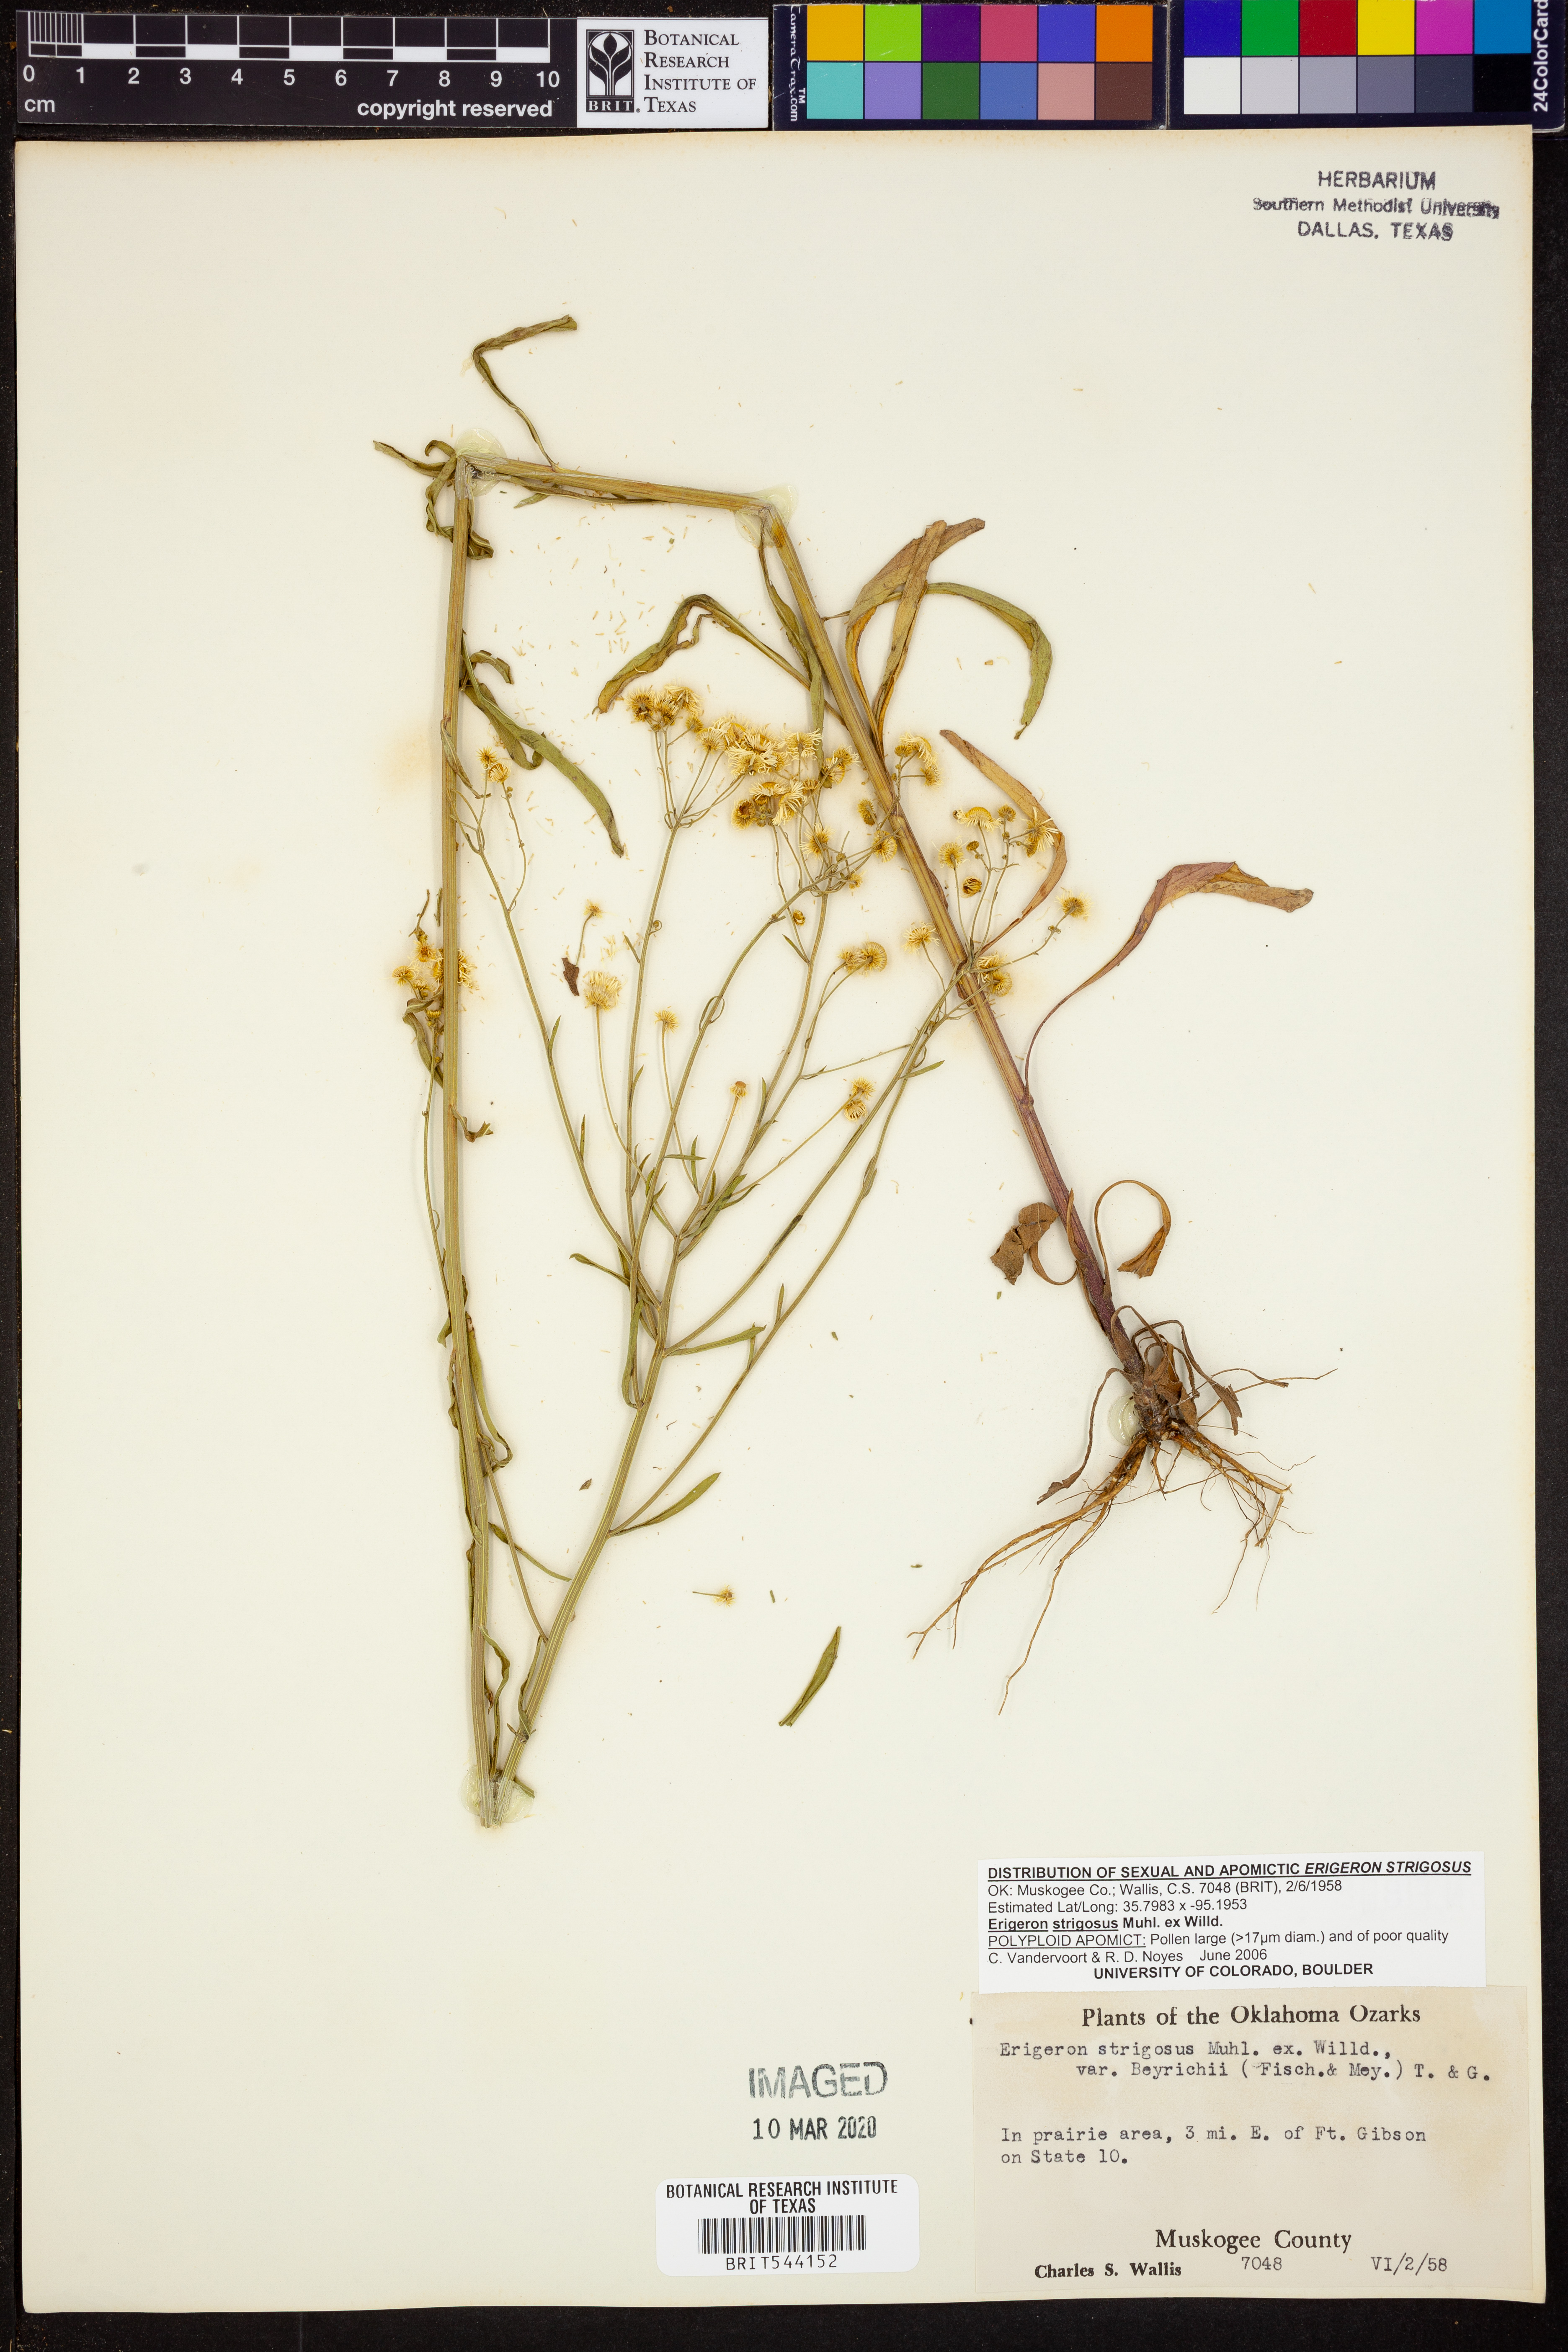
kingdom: Plantae
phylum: Tracheophyta
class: Magnoliopsida
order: Asterales
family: Asteraceae
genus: Erigeron
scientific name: Erigeron strigosus
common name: Common eastern fleabane
